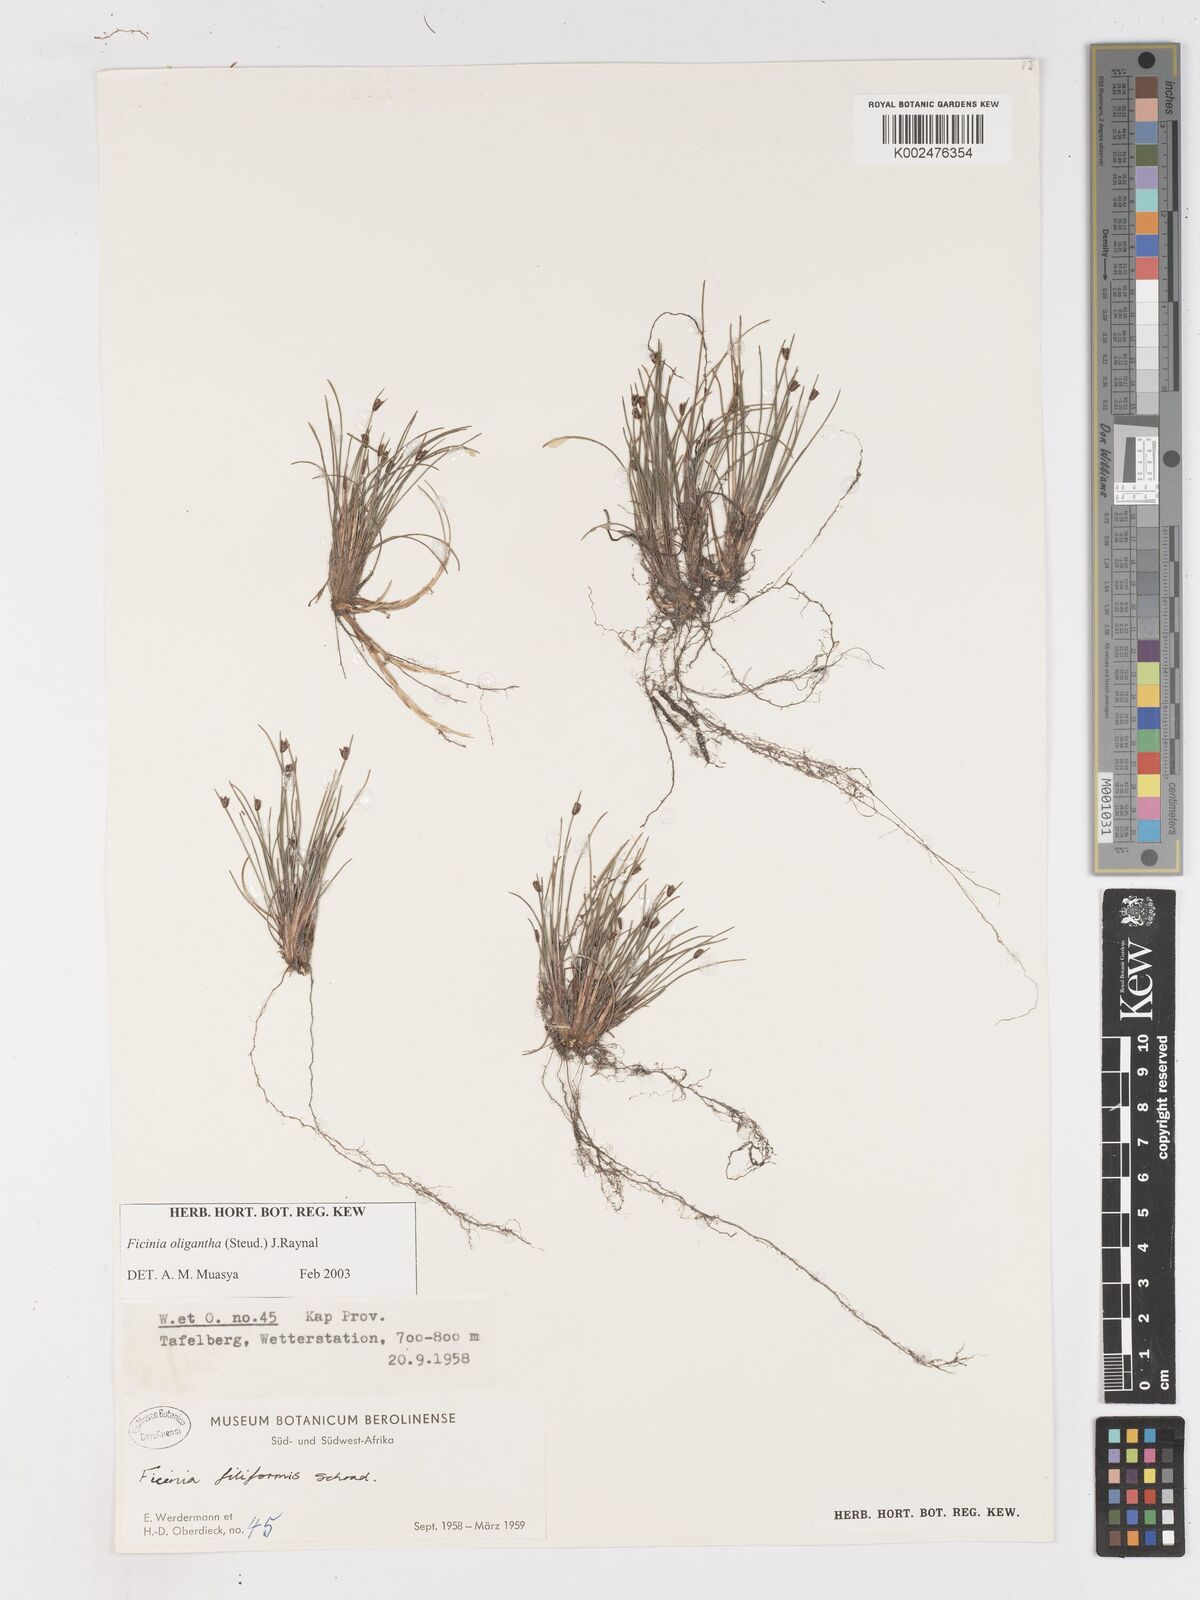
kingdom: Plantae
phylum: Tracheophyta
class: Liliopsida
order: Poales
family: Cyperaceae
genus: Ficinia
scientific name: Ficinia oligantha
